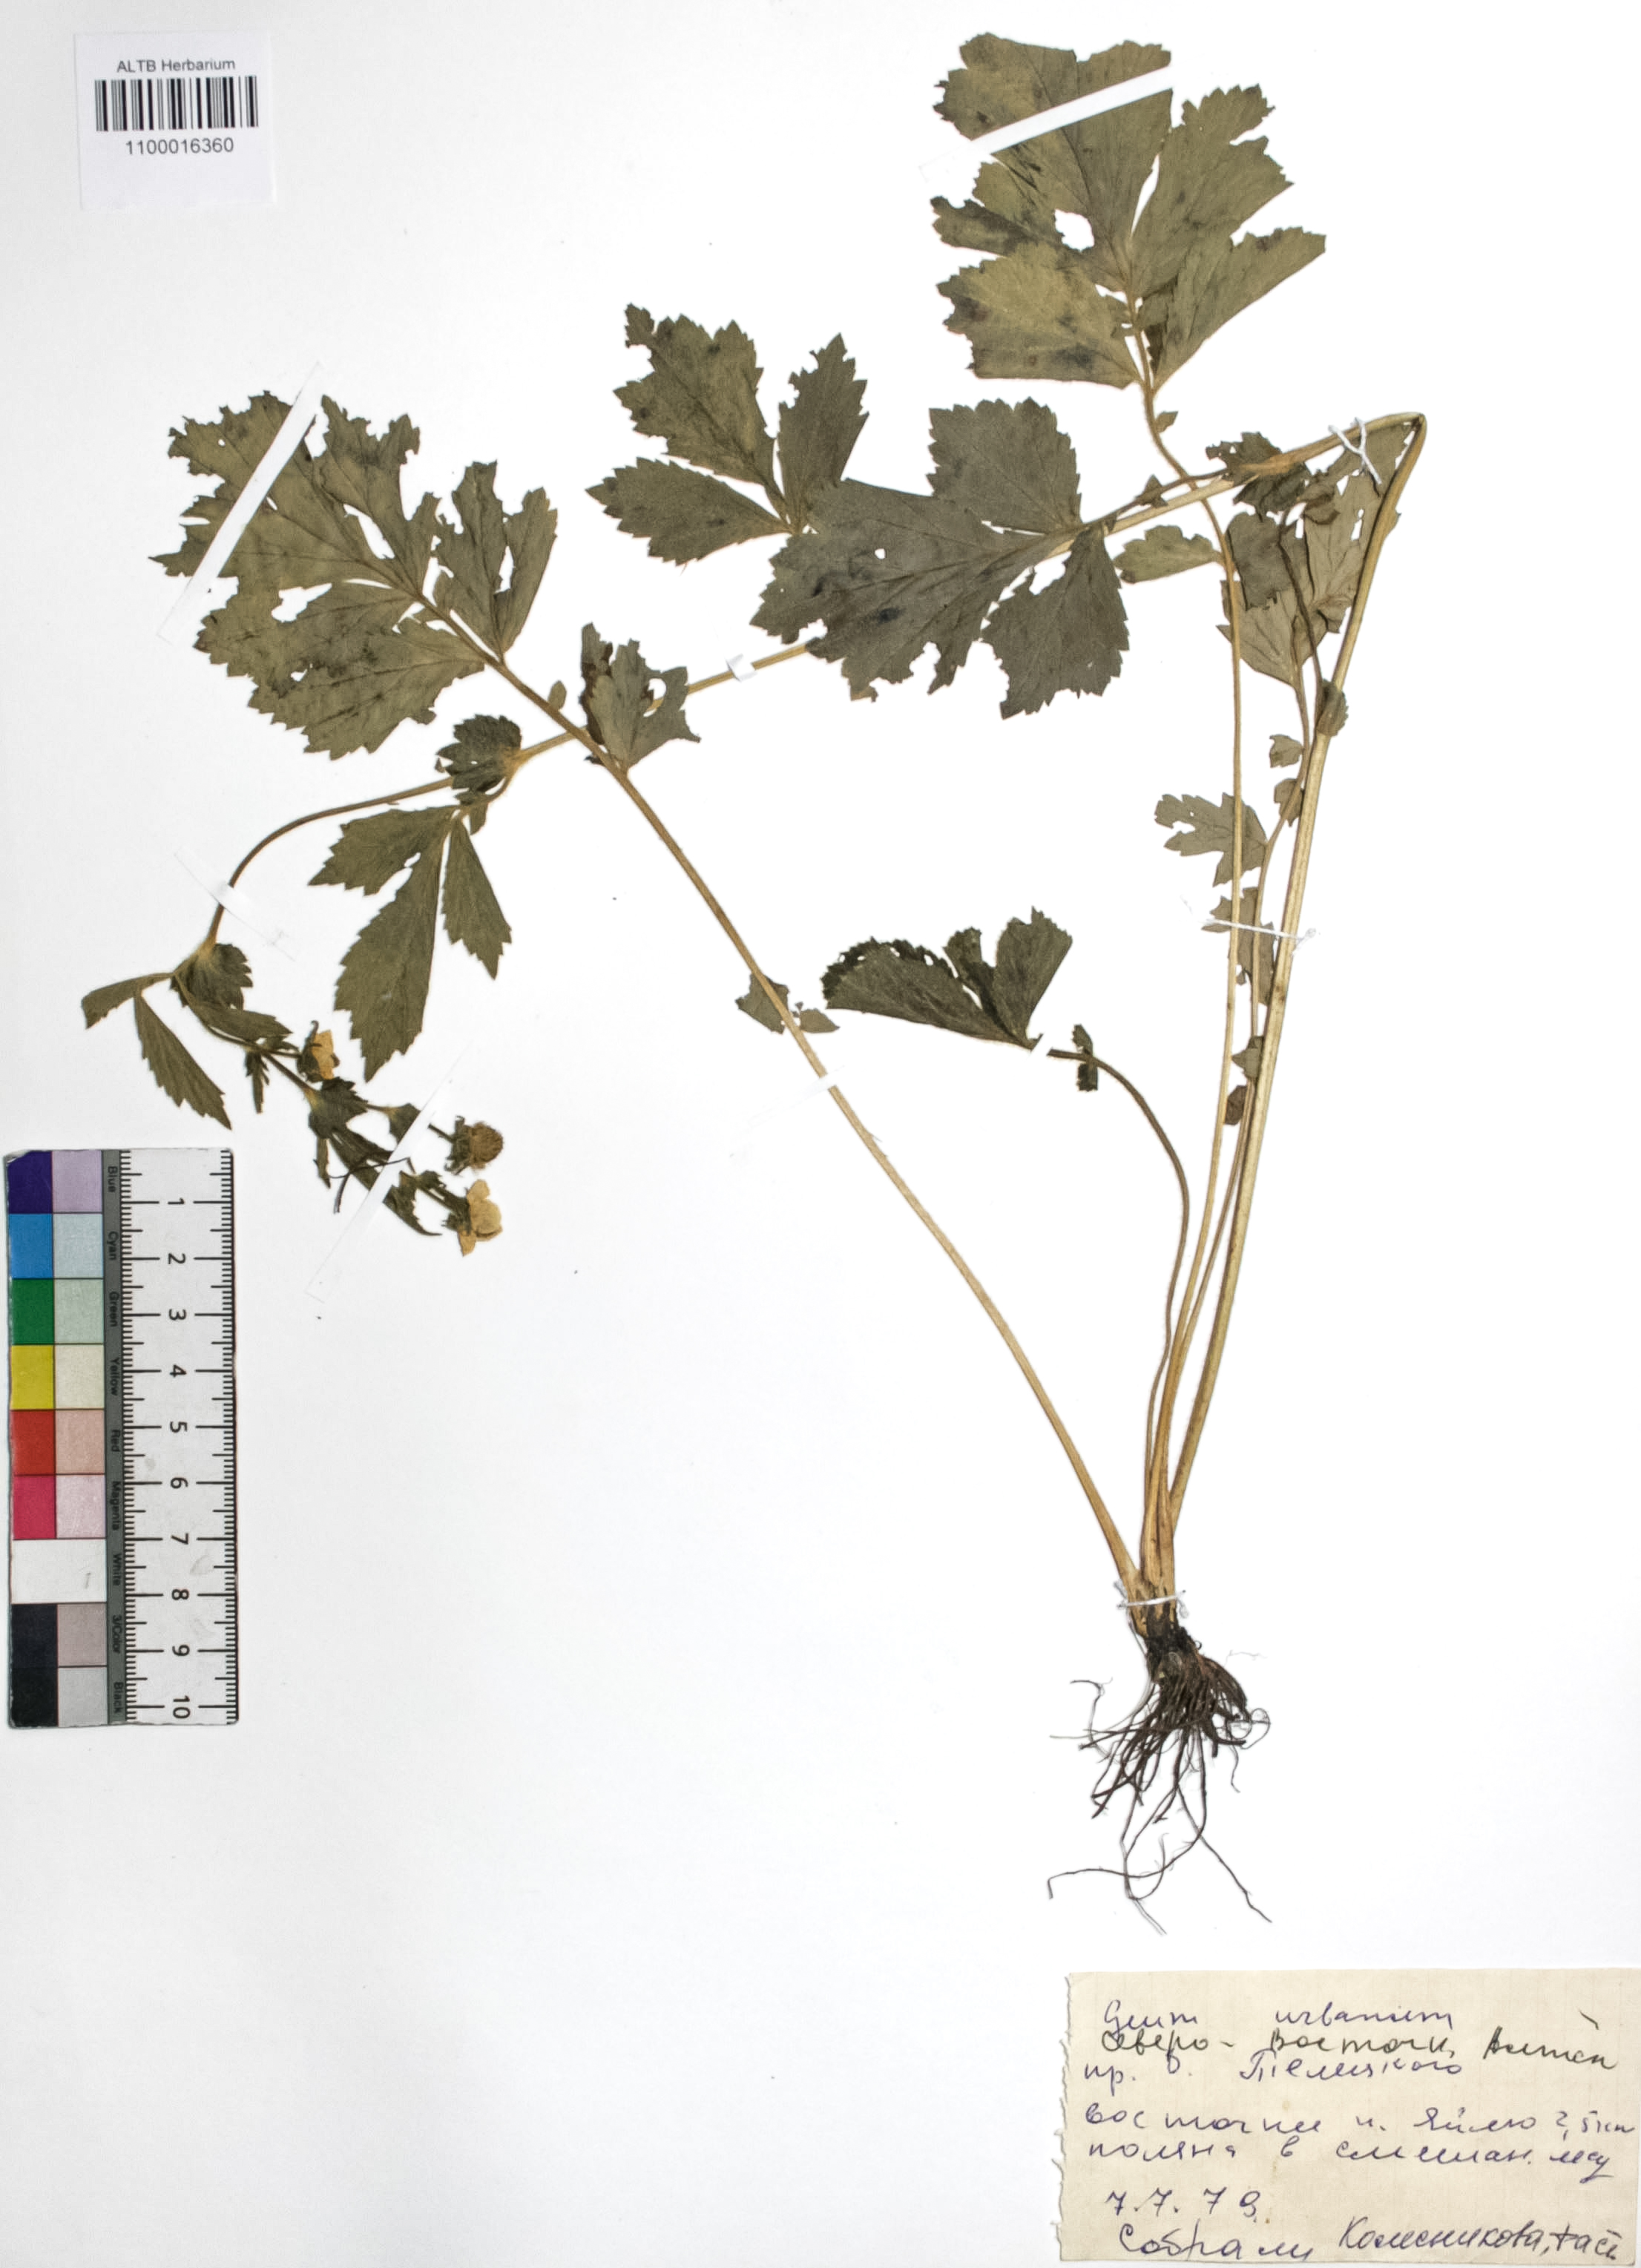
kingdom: Plantae
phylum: Tracheophyta
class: Magnoliopsida
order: Rosales
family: Rosaceae
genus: Geum
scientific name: Geum urbanum
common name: Wood avens
